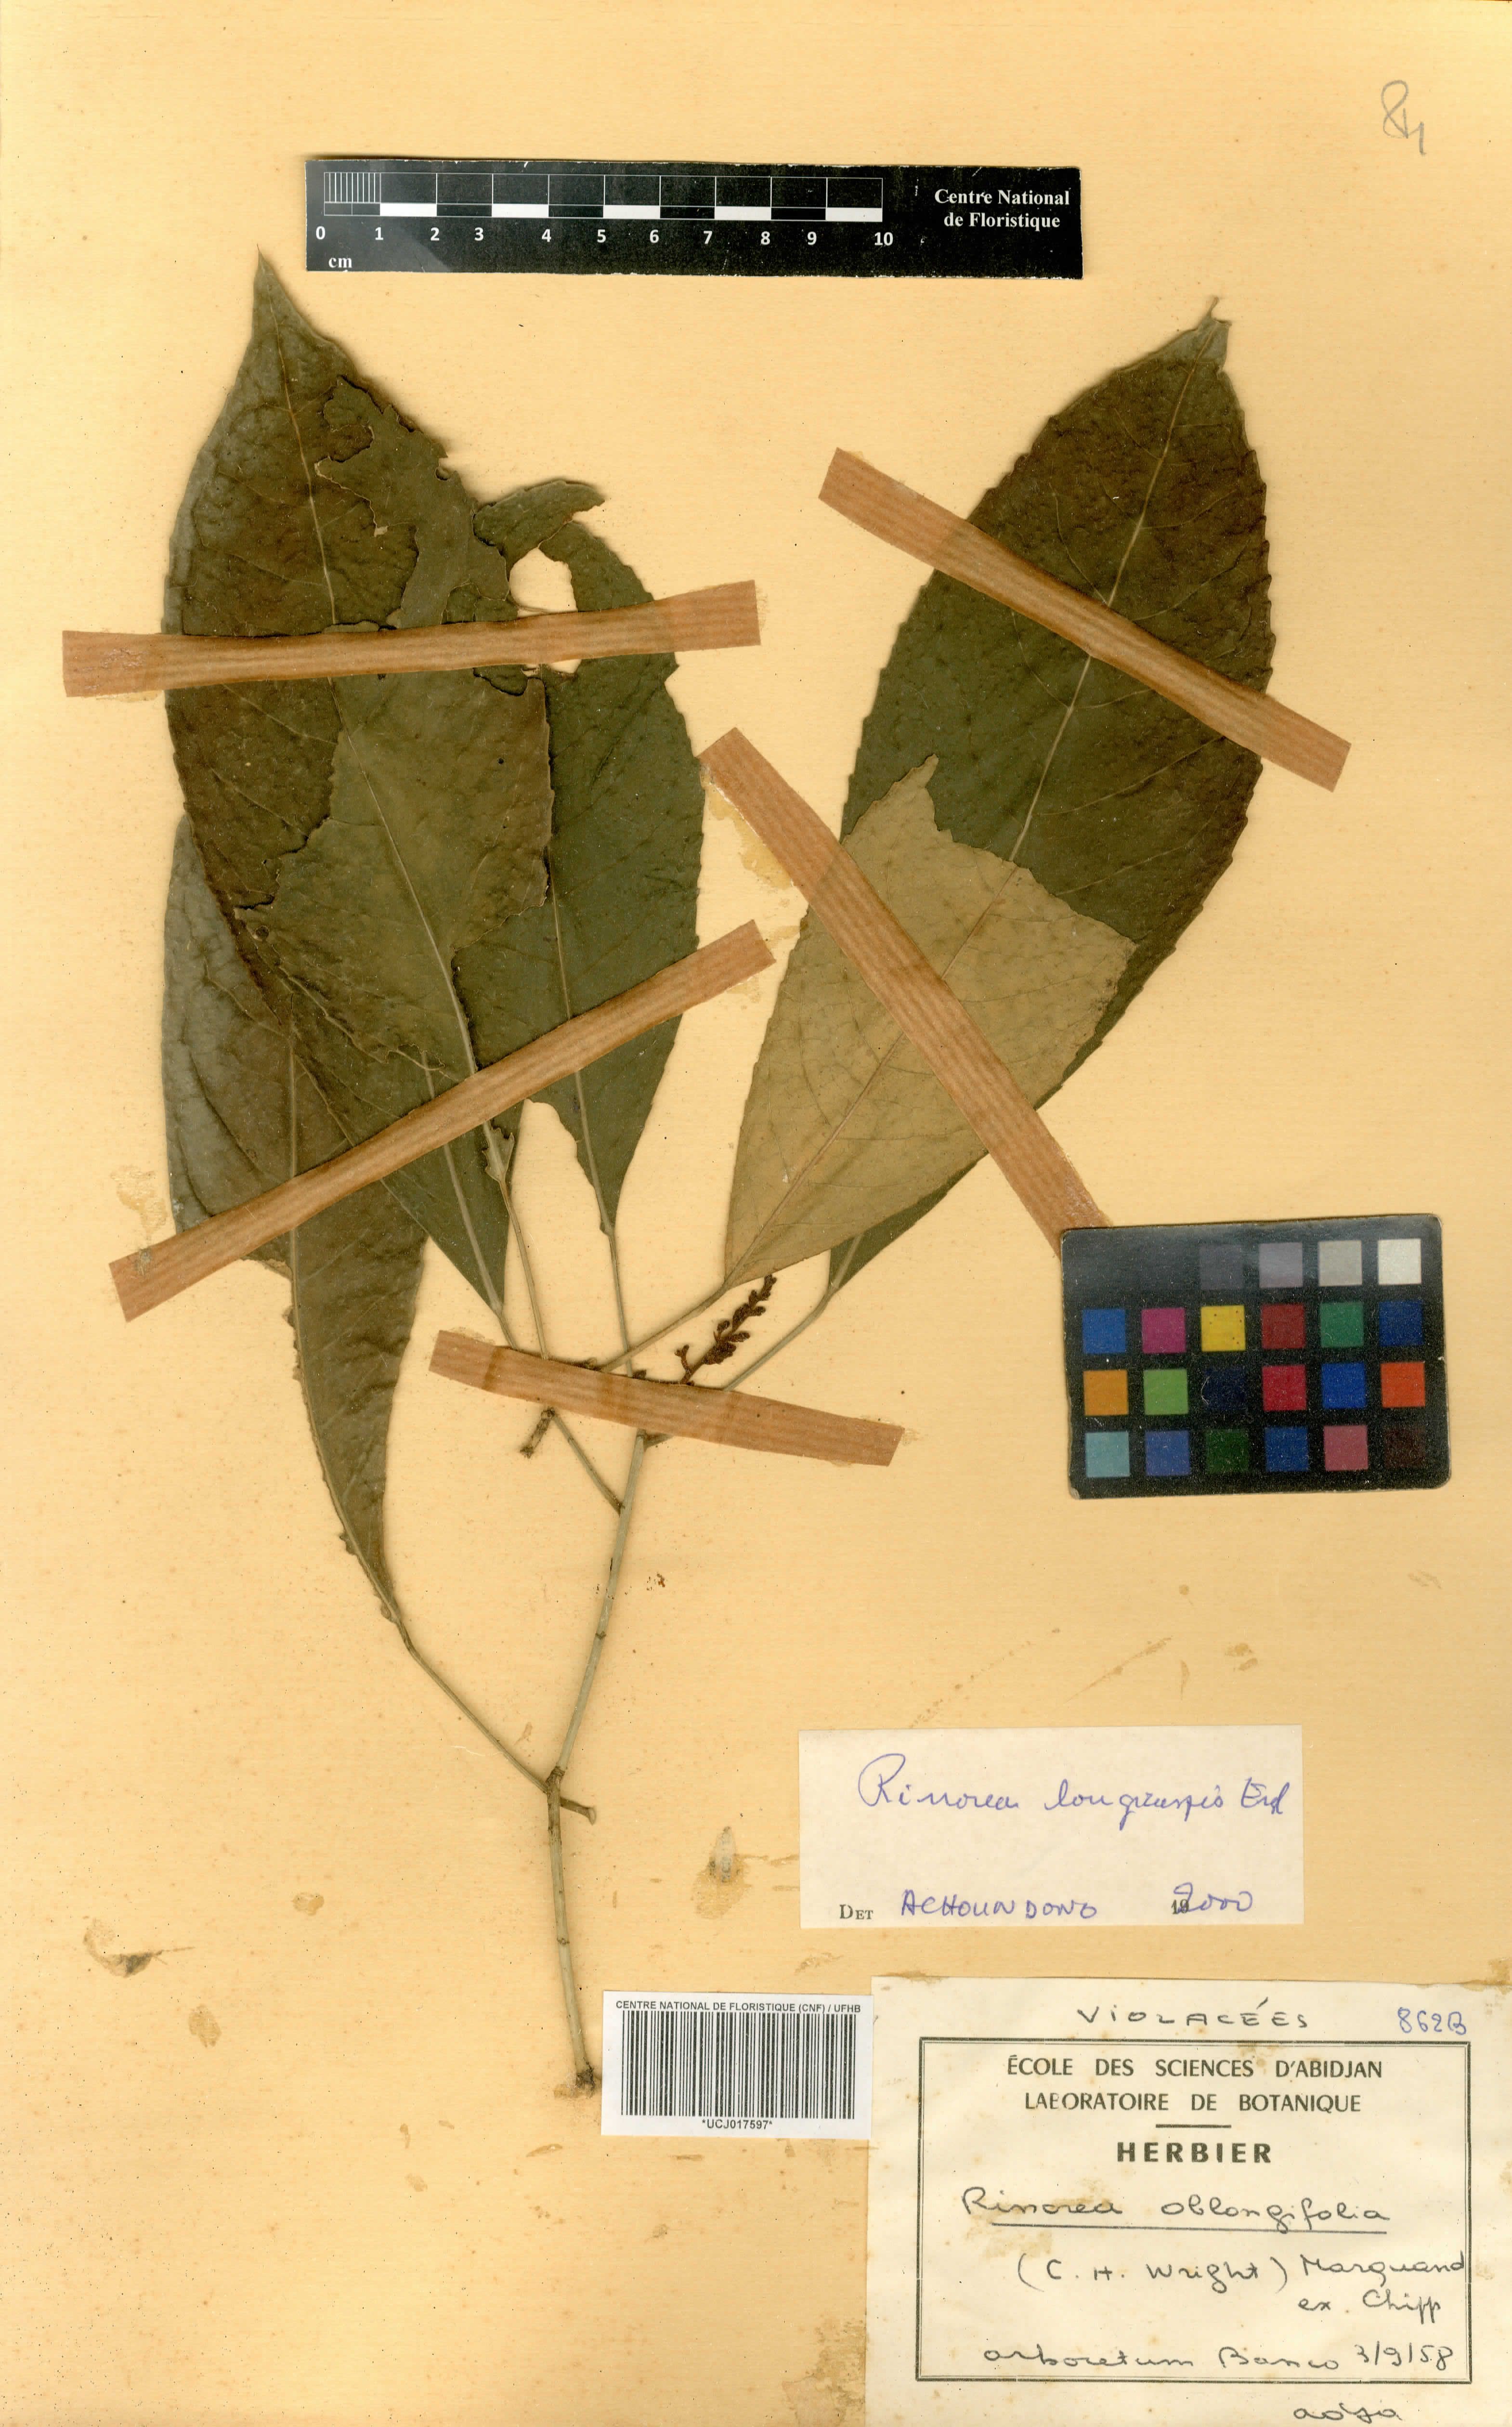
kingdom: Plantae
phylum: Tracheophyta
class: Magnoliopsida
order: Apiales
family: Pittosporaceae
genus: Marianthus
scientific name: Marianthus coeruleopunctatus
